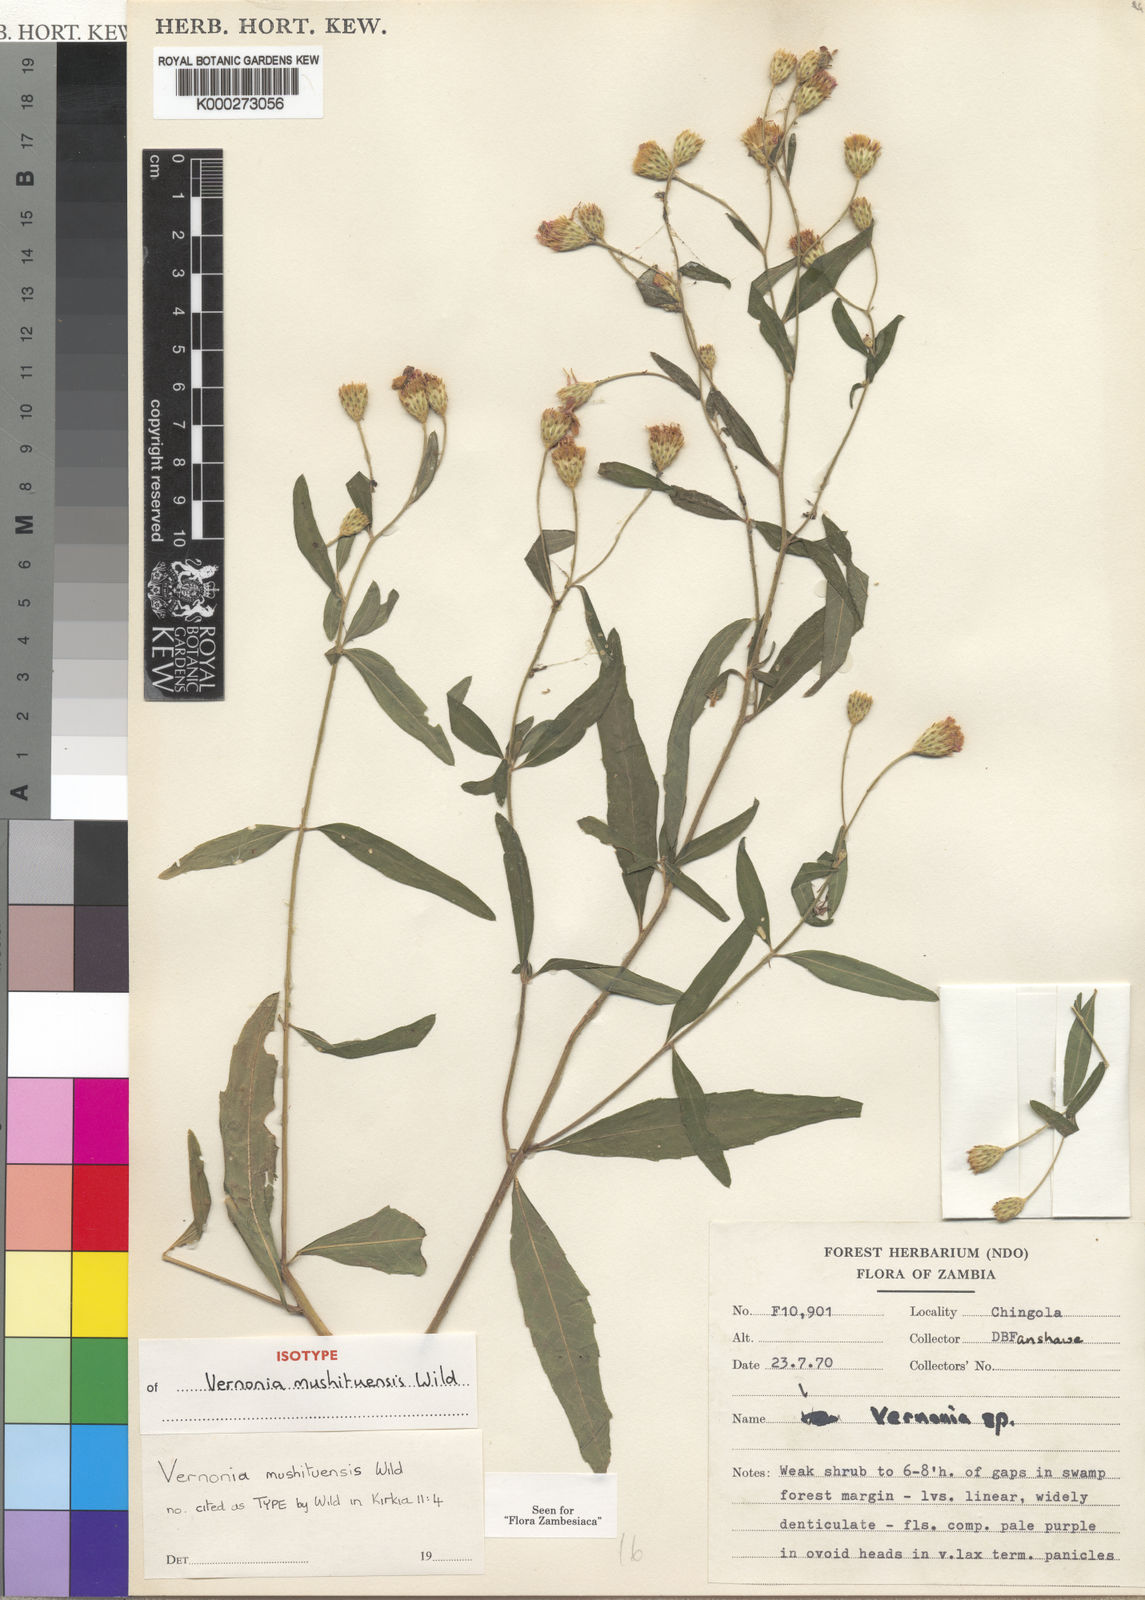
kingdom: Plantae
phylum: Tracheophyta
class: Magnoliopsida
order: Asterales
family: Asteraceae
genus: Vernonia
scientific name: Vernonia mushituensis
